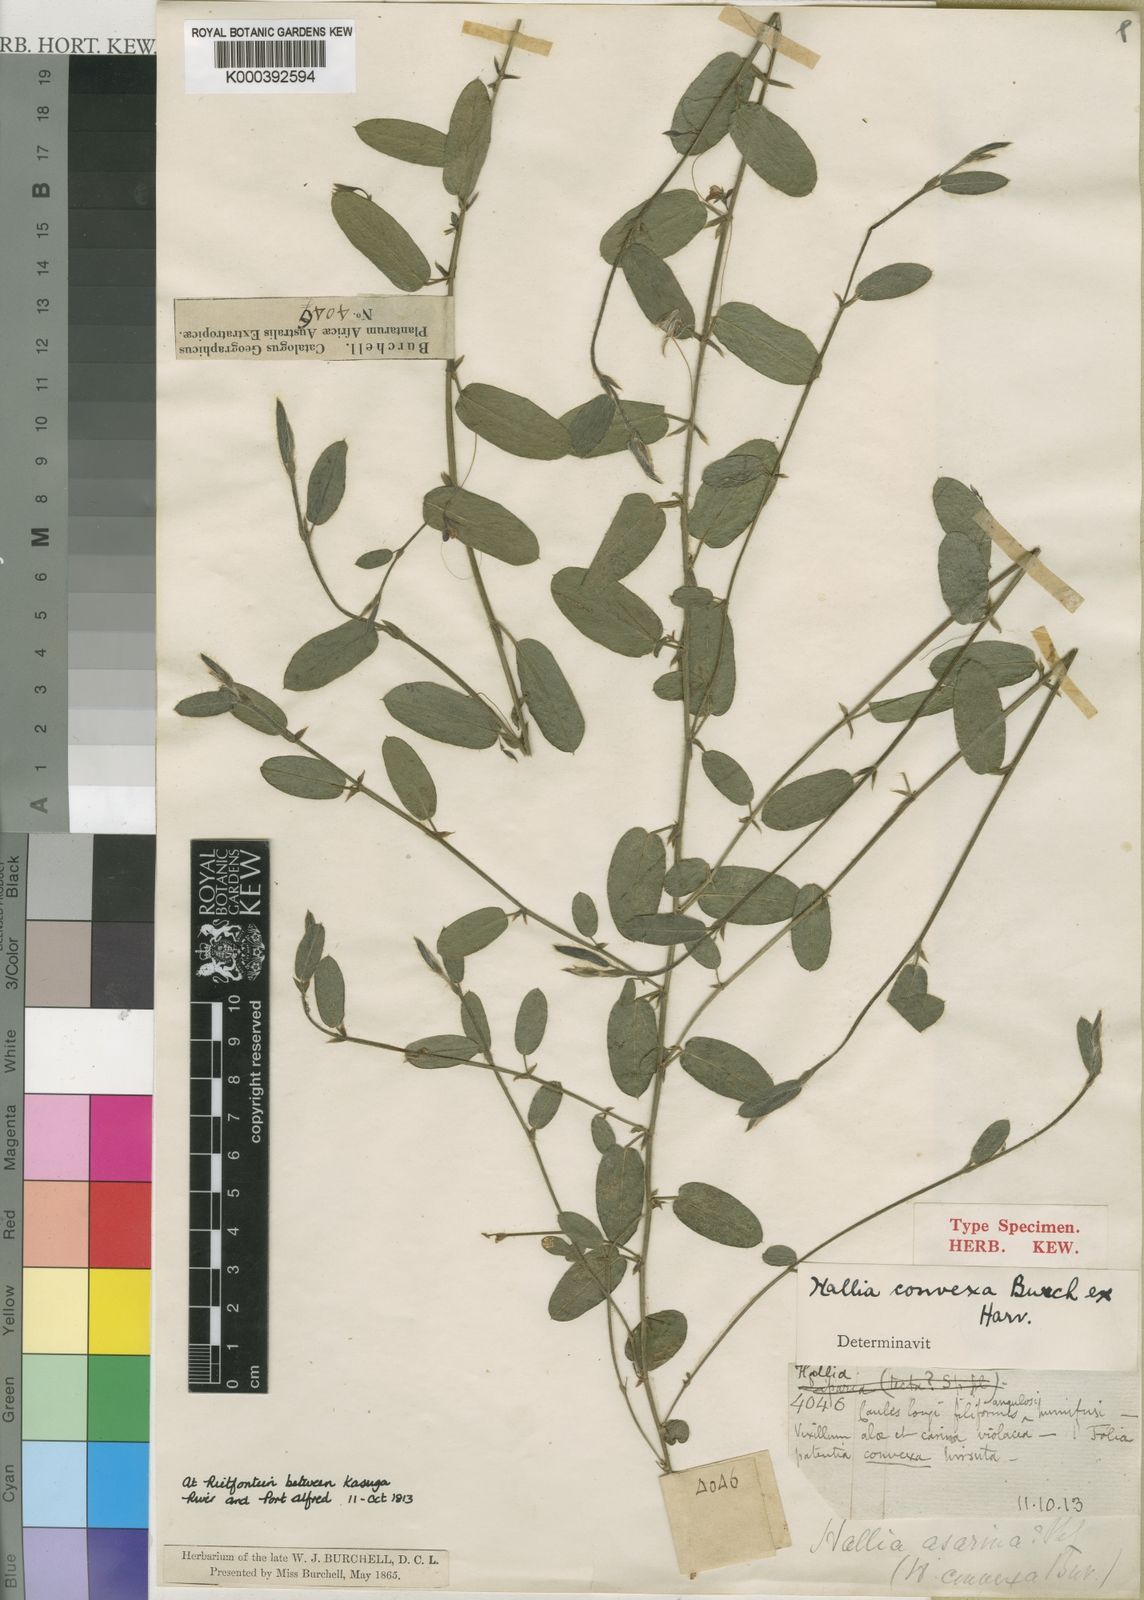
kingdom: Plantae
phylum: Tracheophyta
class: Magnoliopsida
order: Fabales
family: Fabaceae
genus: Psoralea
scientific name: Psoralea asarina
